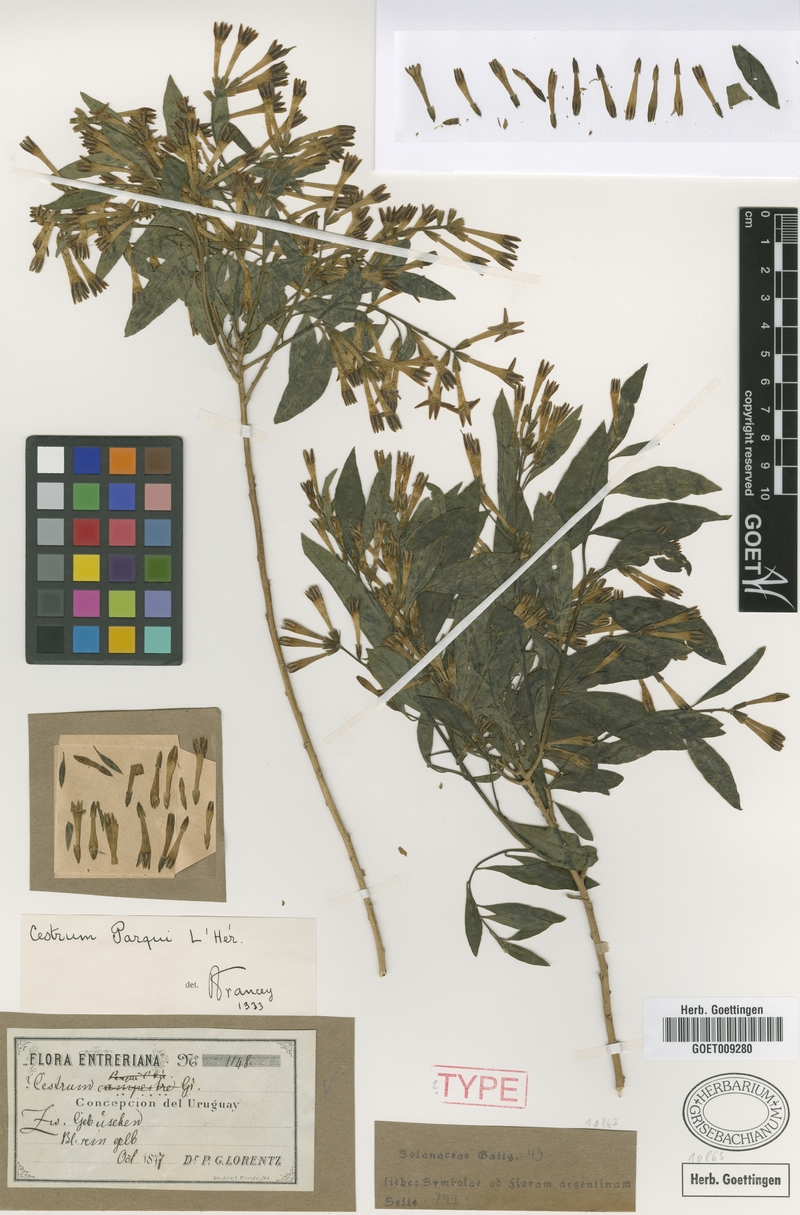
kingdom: Plantae
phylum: Tracheophyta
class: Magnoliopsida
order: Solanales
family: Solanaceae
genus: Cestrum
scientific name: Cestrum thyrsoideum
